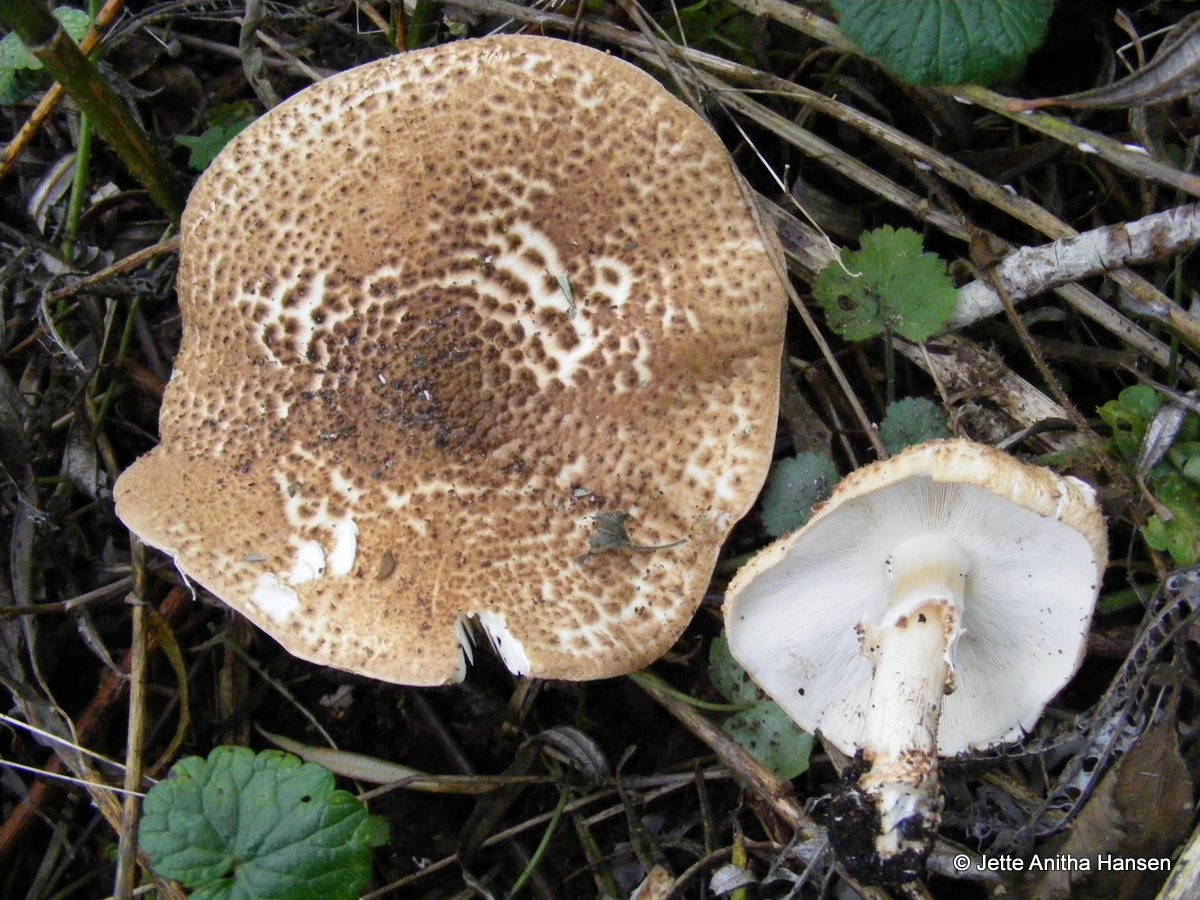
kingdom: Fungi
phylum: Basidiomycota
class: Agaricomycetes
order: Agaricales
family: Agaricaceae
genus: Echinoderma
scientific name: Echinoderma asperum
